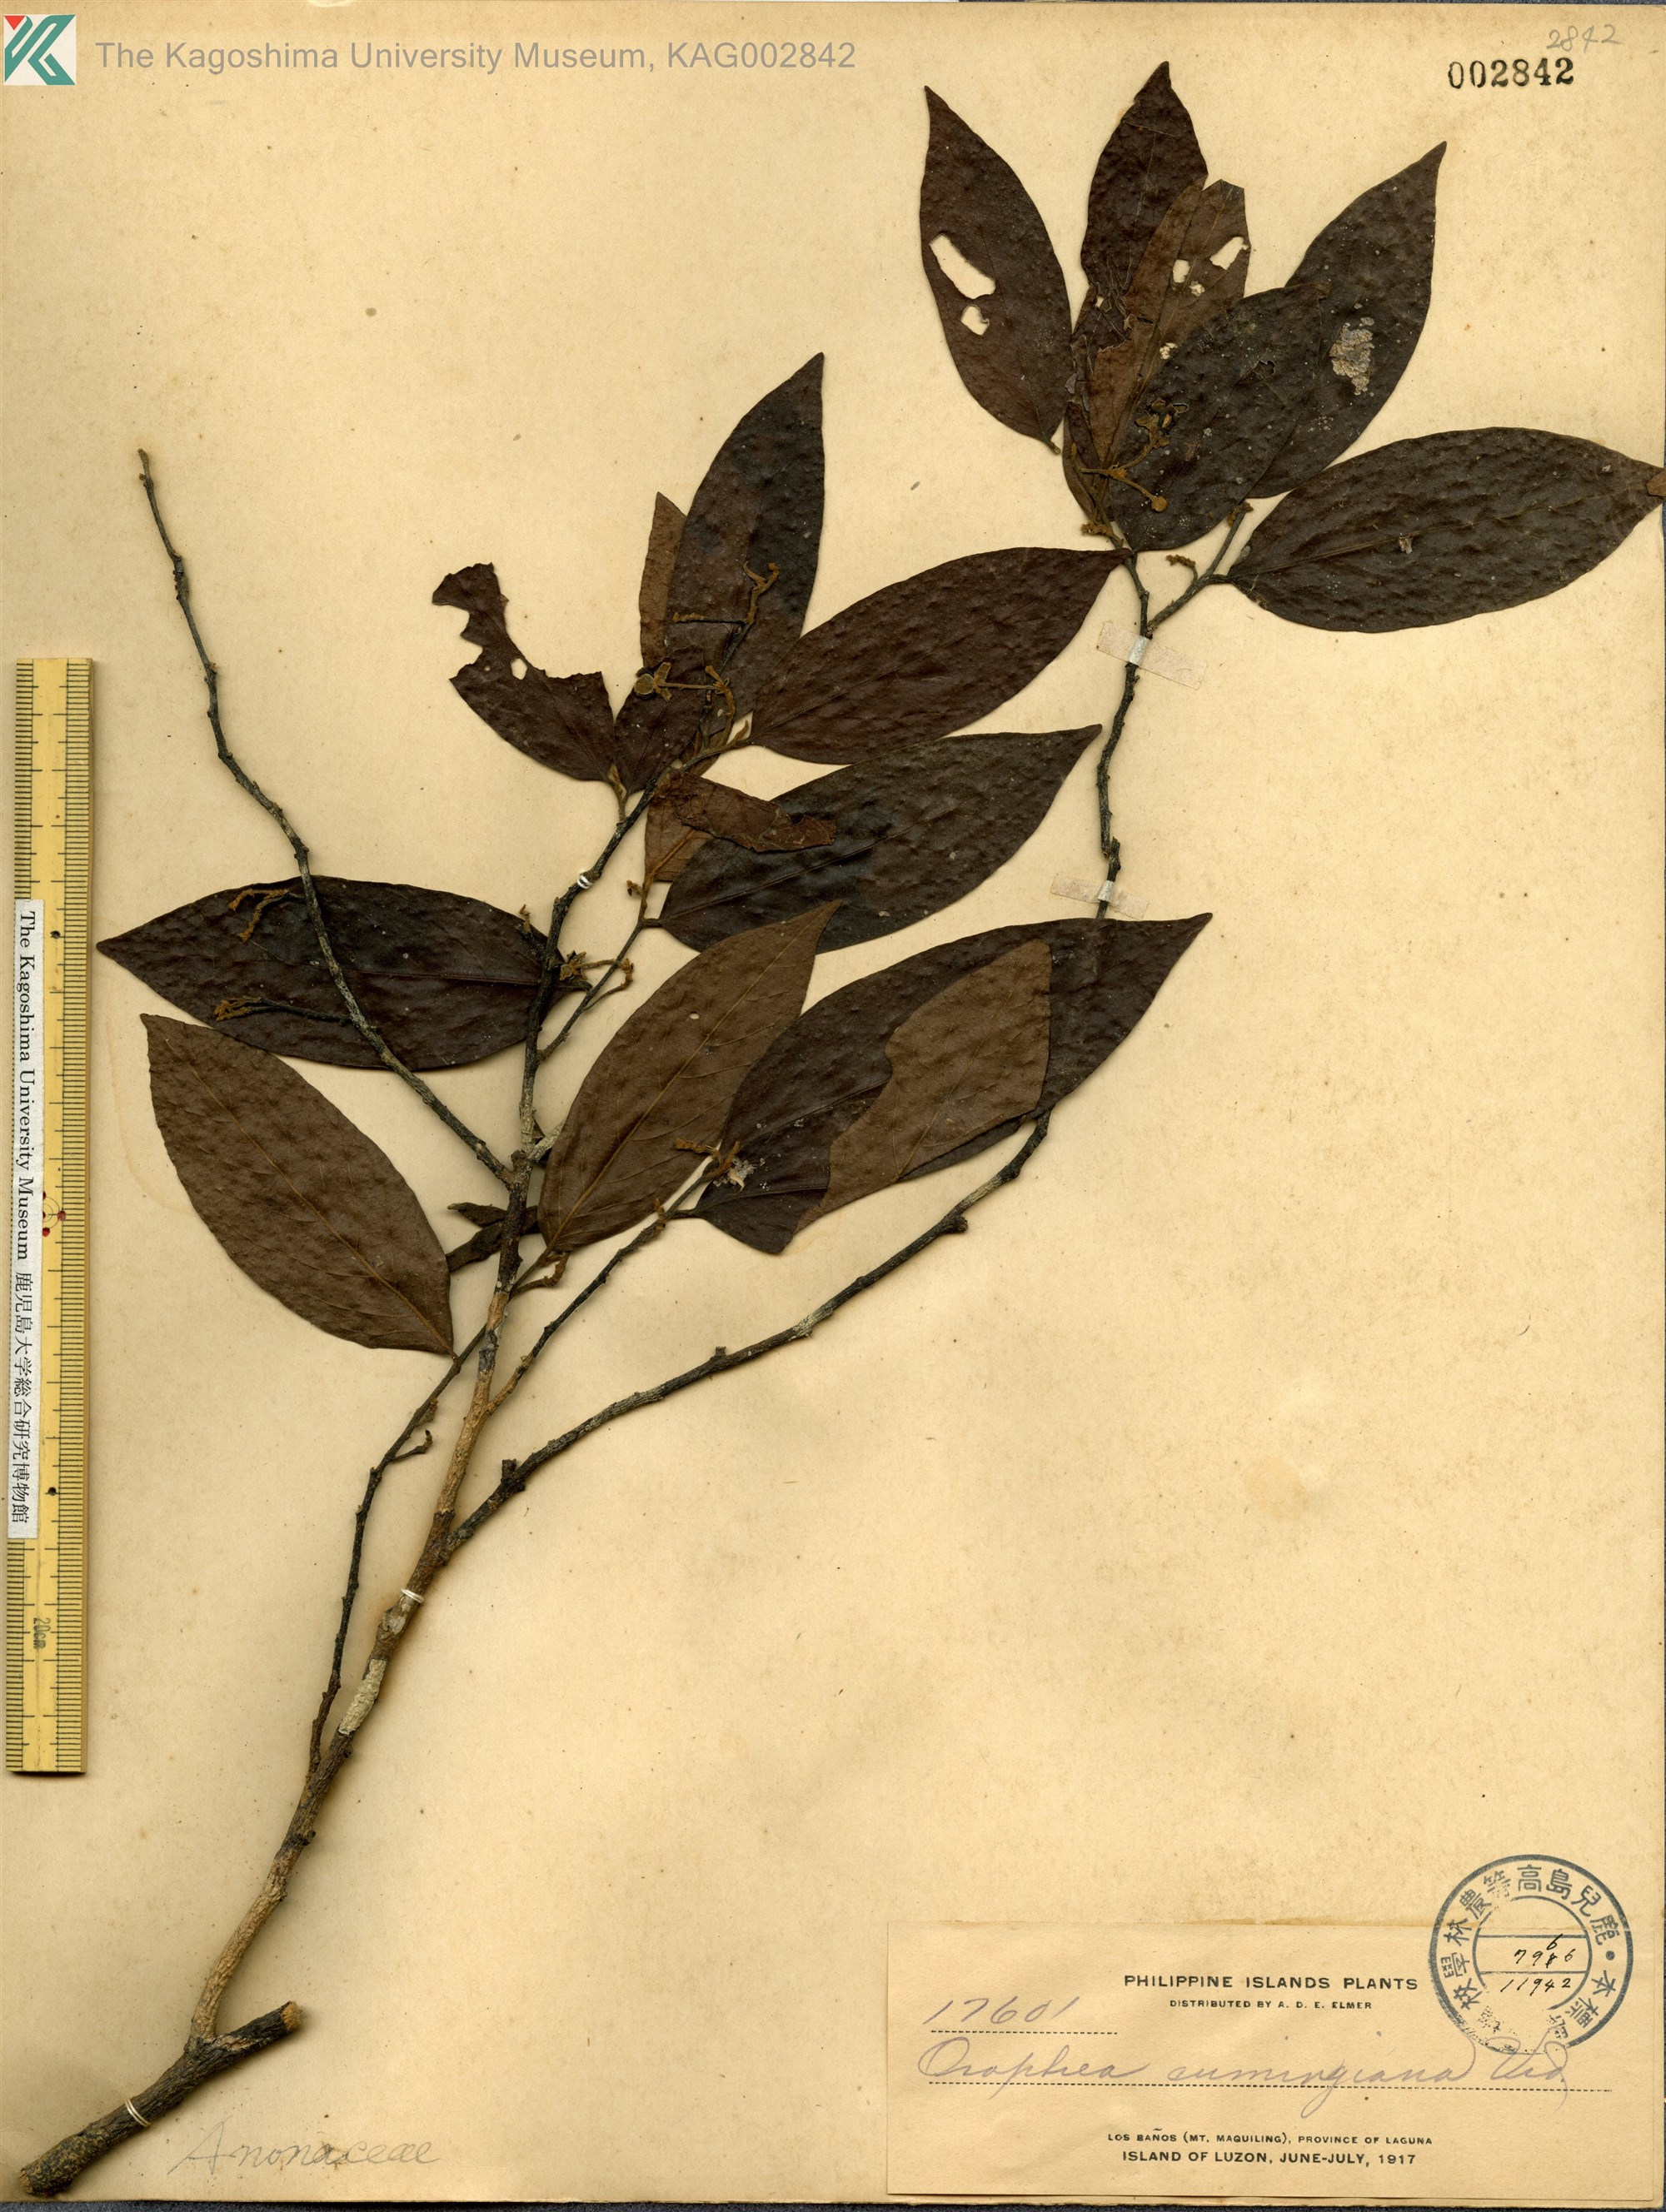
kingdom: Plantae
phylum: Tracheophyta
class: Magnoliopsida
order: Magnoliales
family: Annonaceae
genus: Orophea
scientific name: Orophea cumingiana
